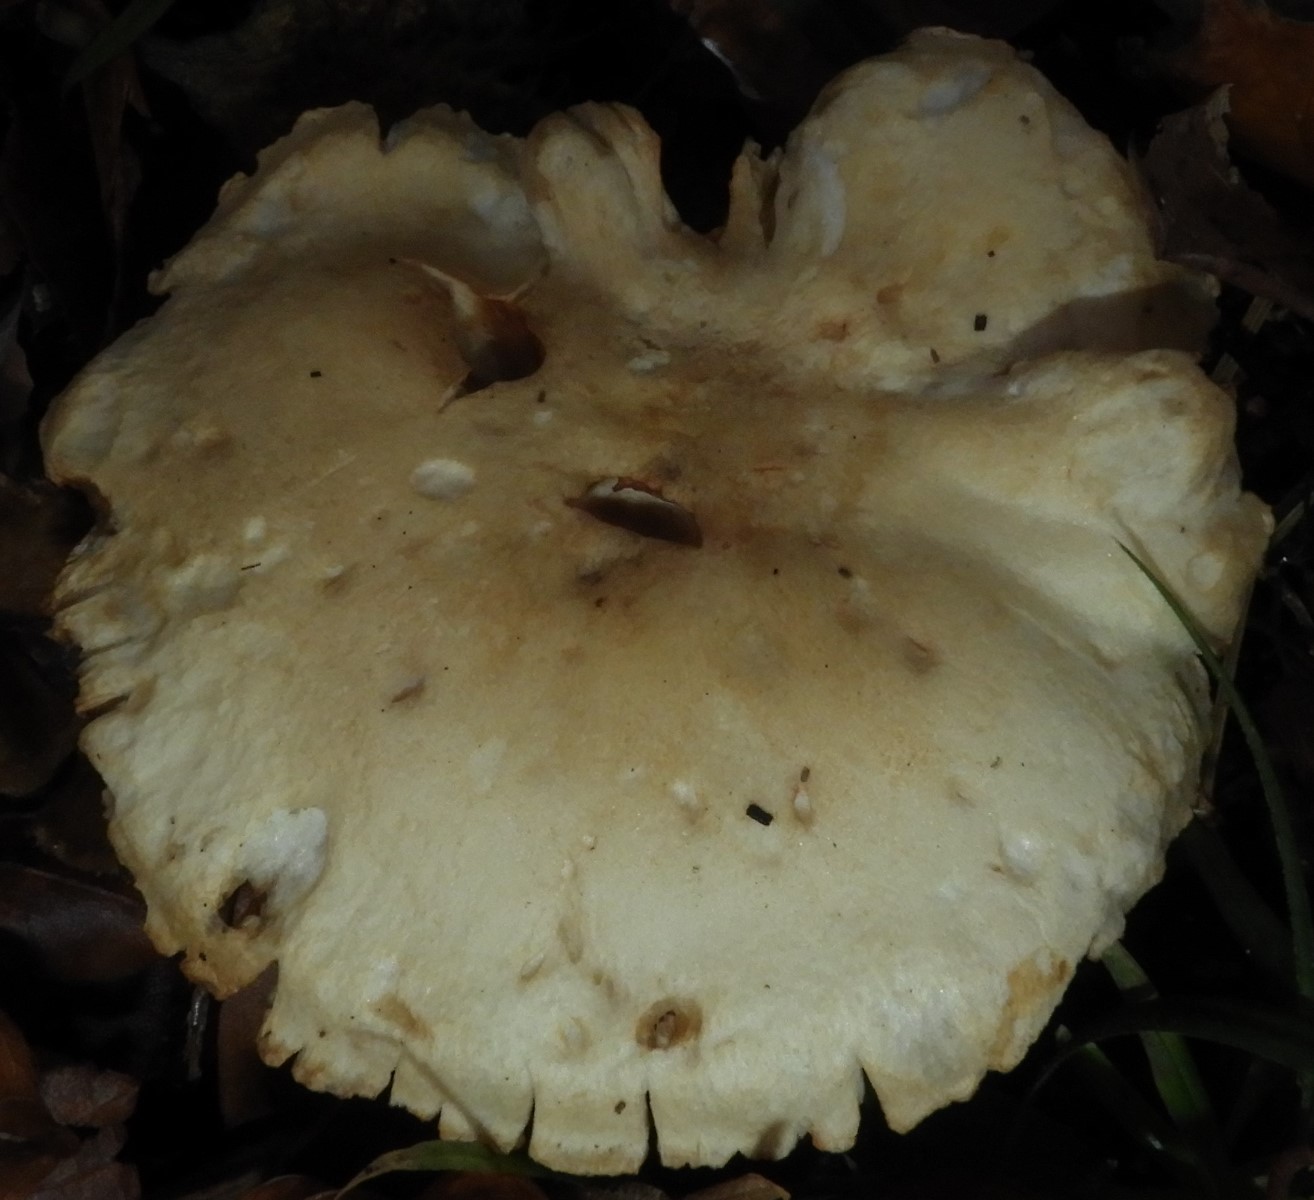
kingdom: Fungi
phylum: Basidiomycota
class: Agaricomycetes
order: Agaricales
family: Tricholomataceae
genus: Tricholoma
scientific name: Tricholoma lascivum
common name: stinkende ridderhat
